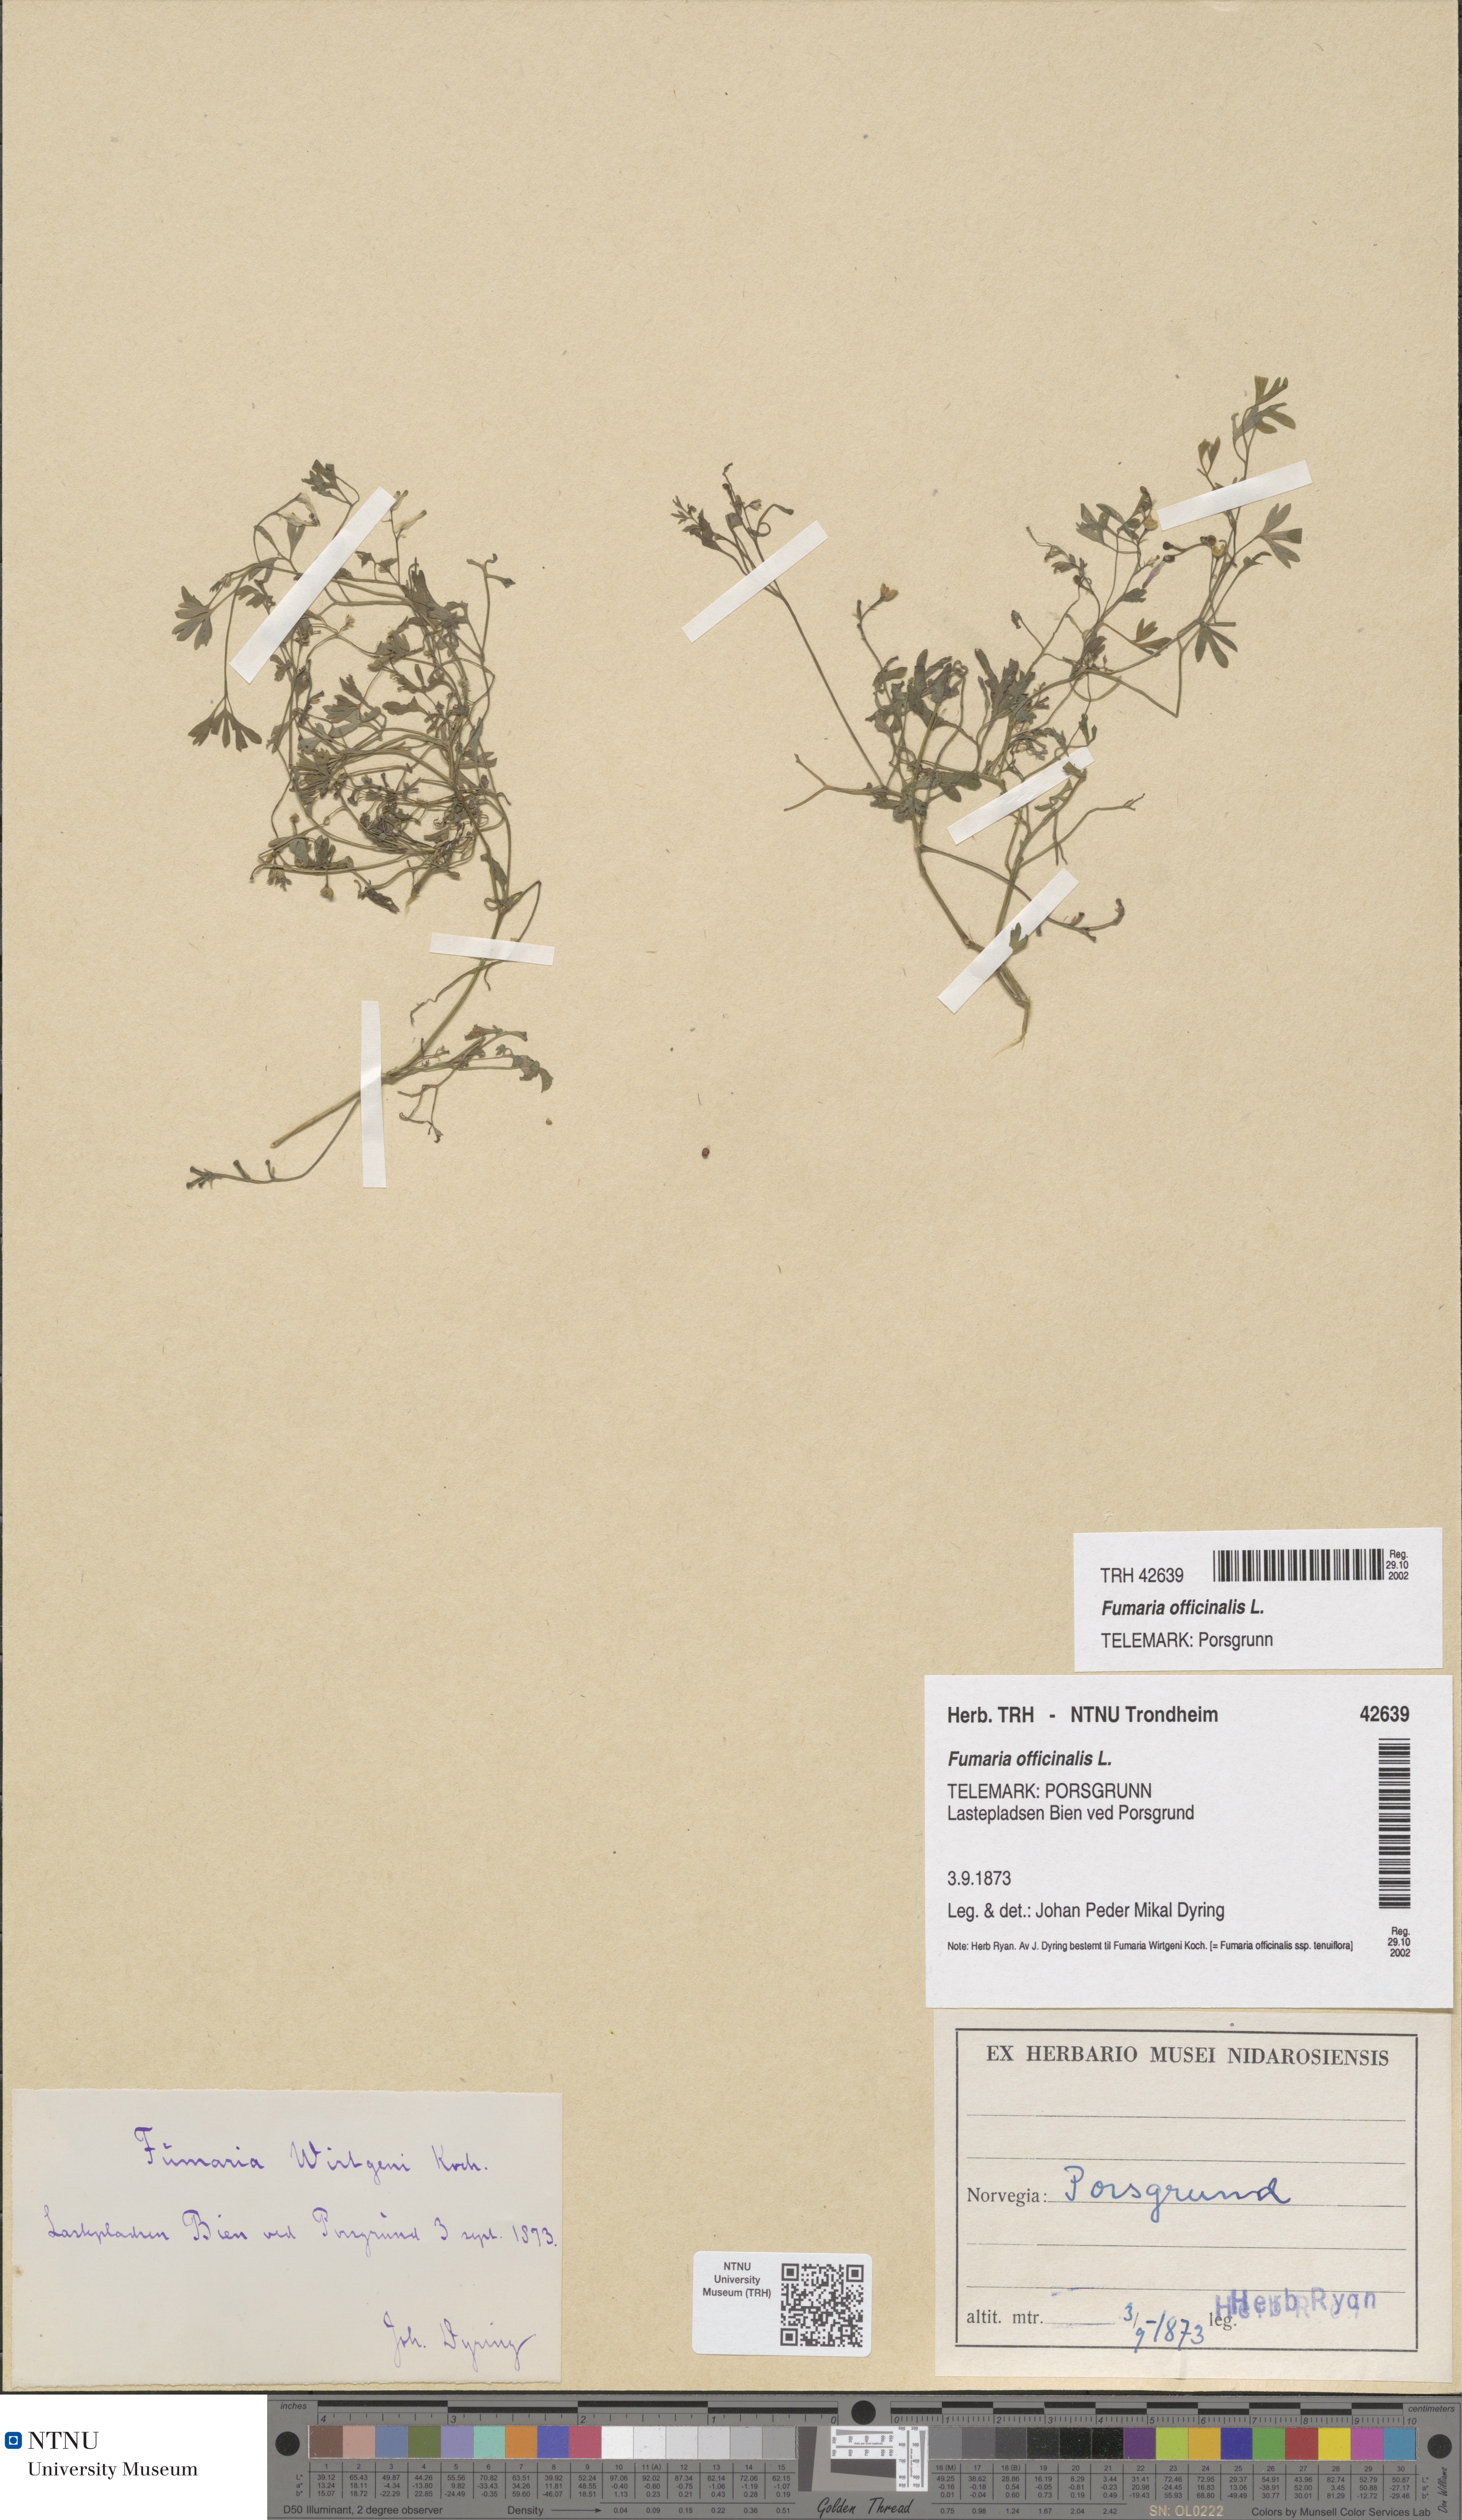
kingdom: Plantae
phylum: Tracheophyta
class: Magnoliopsida
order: Ranunculales
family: Papaveraceae
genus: Fumaria
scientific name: Fumaria officinalis
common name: Common fumitory
